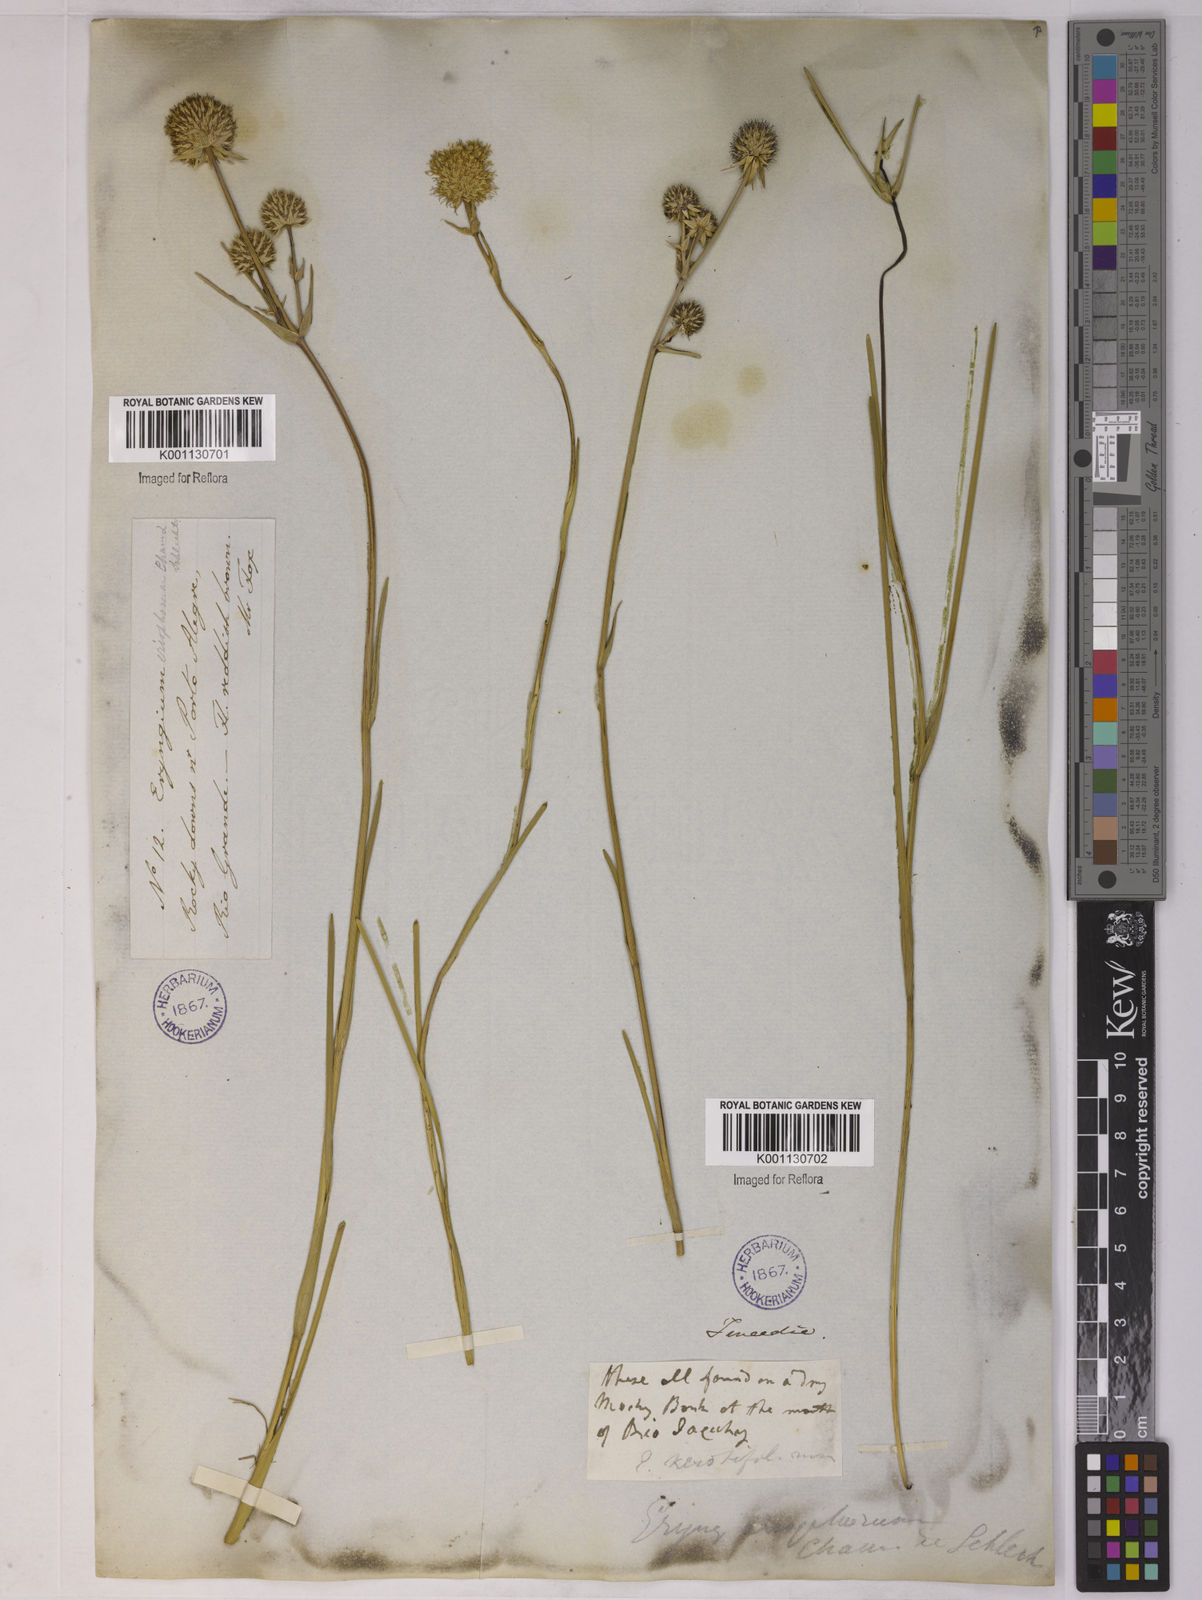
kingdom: Plantae
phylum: Tracheophyta
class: Magnoliopsida
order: Apiales
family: Apiaceae
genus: Eryngium
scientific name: Eryngium eriophorum
